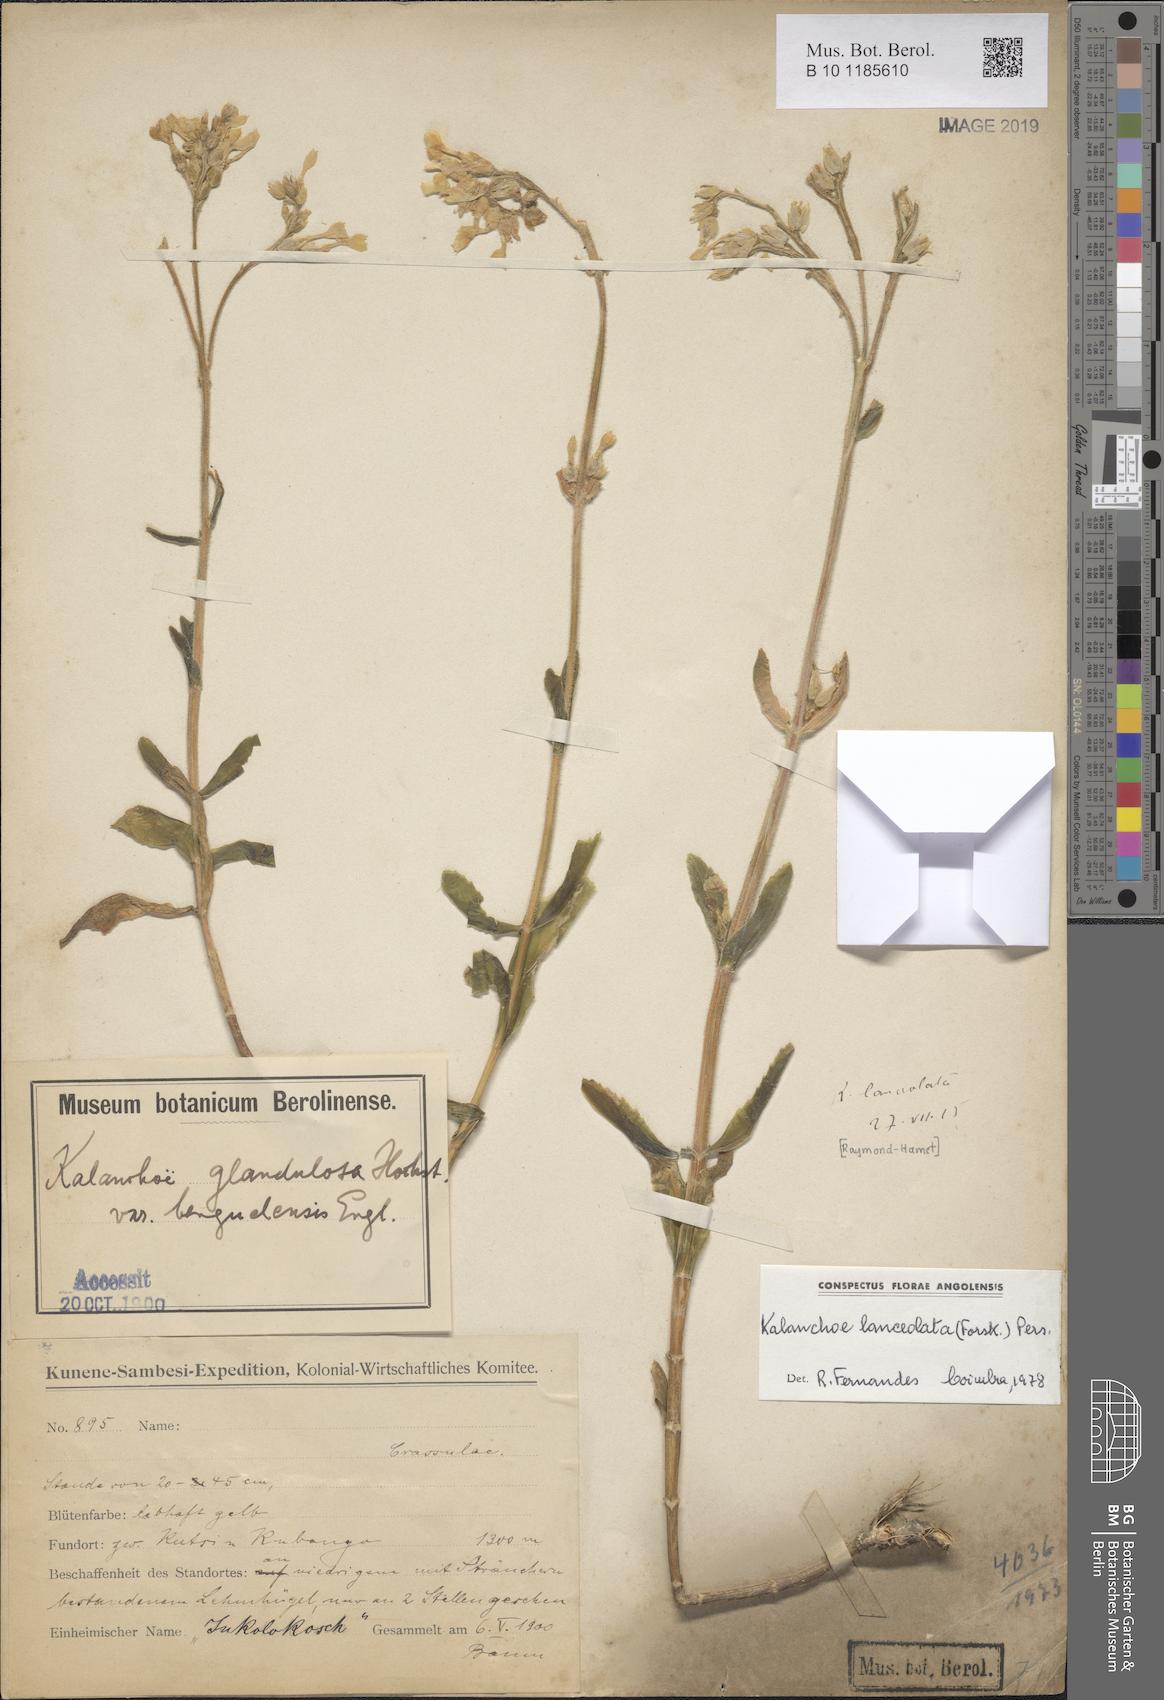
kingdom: Plantae
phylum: Tracheophyta
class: Magnoliopsida
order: Saxifragales
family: Crassulaceae
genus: Kalanchoe
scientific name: Kalanchoe lanceolata
